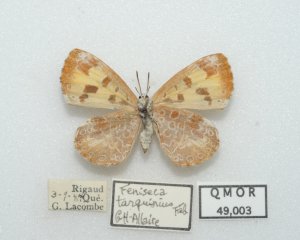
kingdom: Animalia
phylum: Arthropoda
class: Insecta
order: Lepidoptera
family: Lycaenidae
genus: Feniseca
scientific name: Feniseca tarquinius
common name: Harvester
